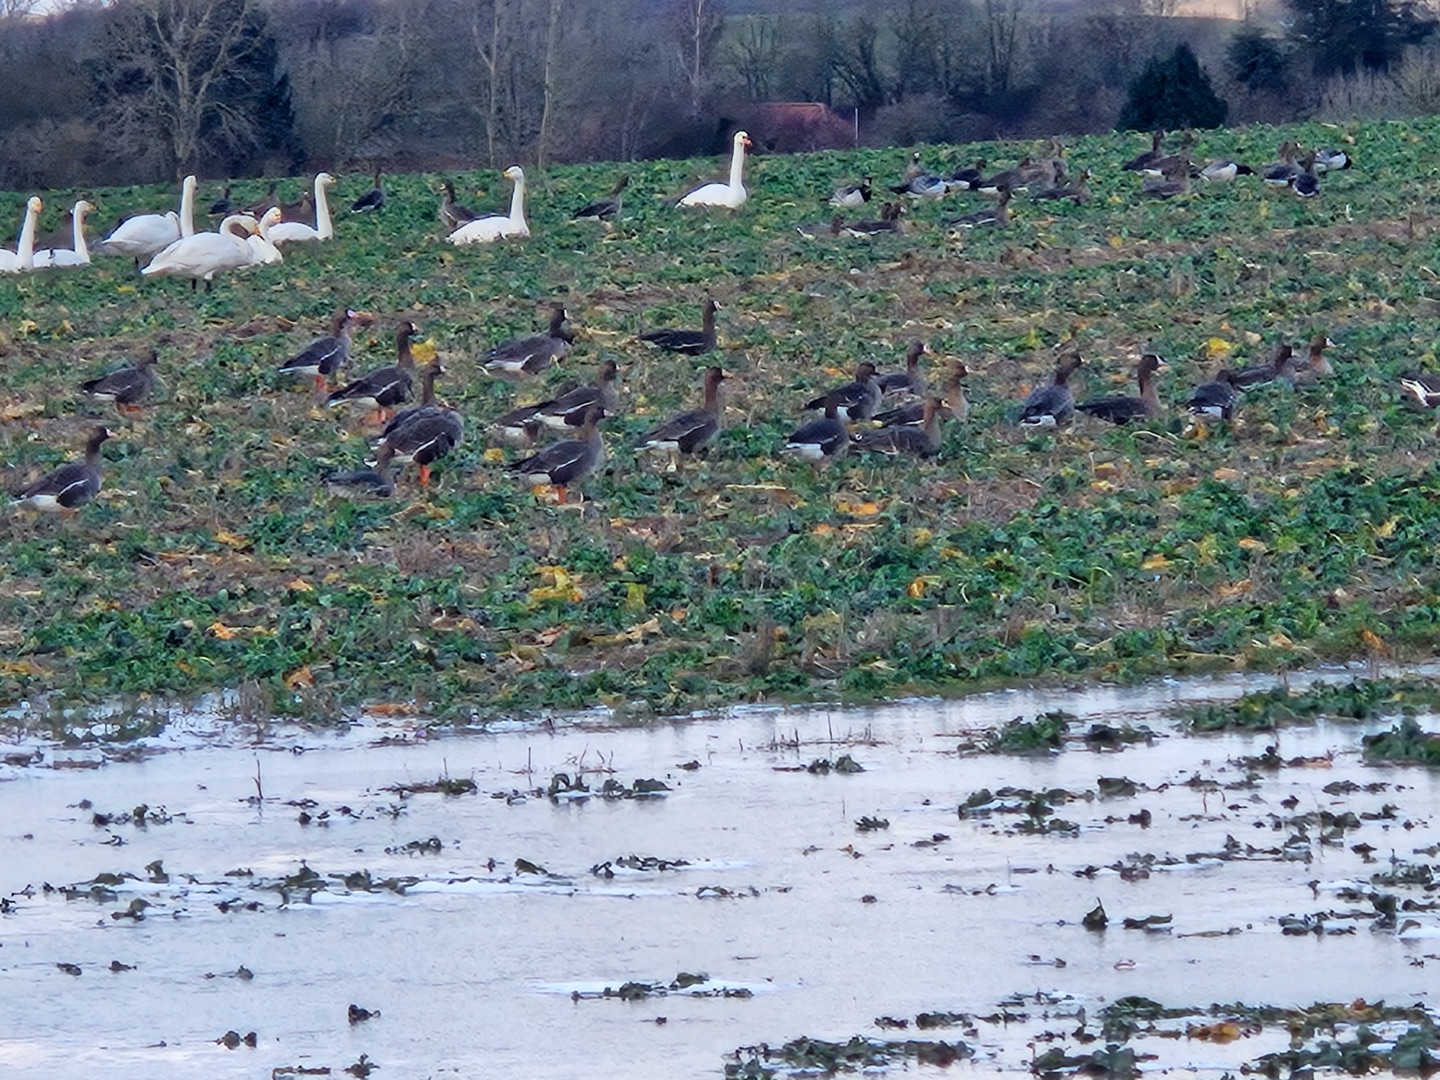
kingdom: Animalia
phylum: Chordata
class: Aves
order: Anseriformes
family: Anatidae
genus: Anser
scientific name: Anser albifrons
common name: Blisgås
